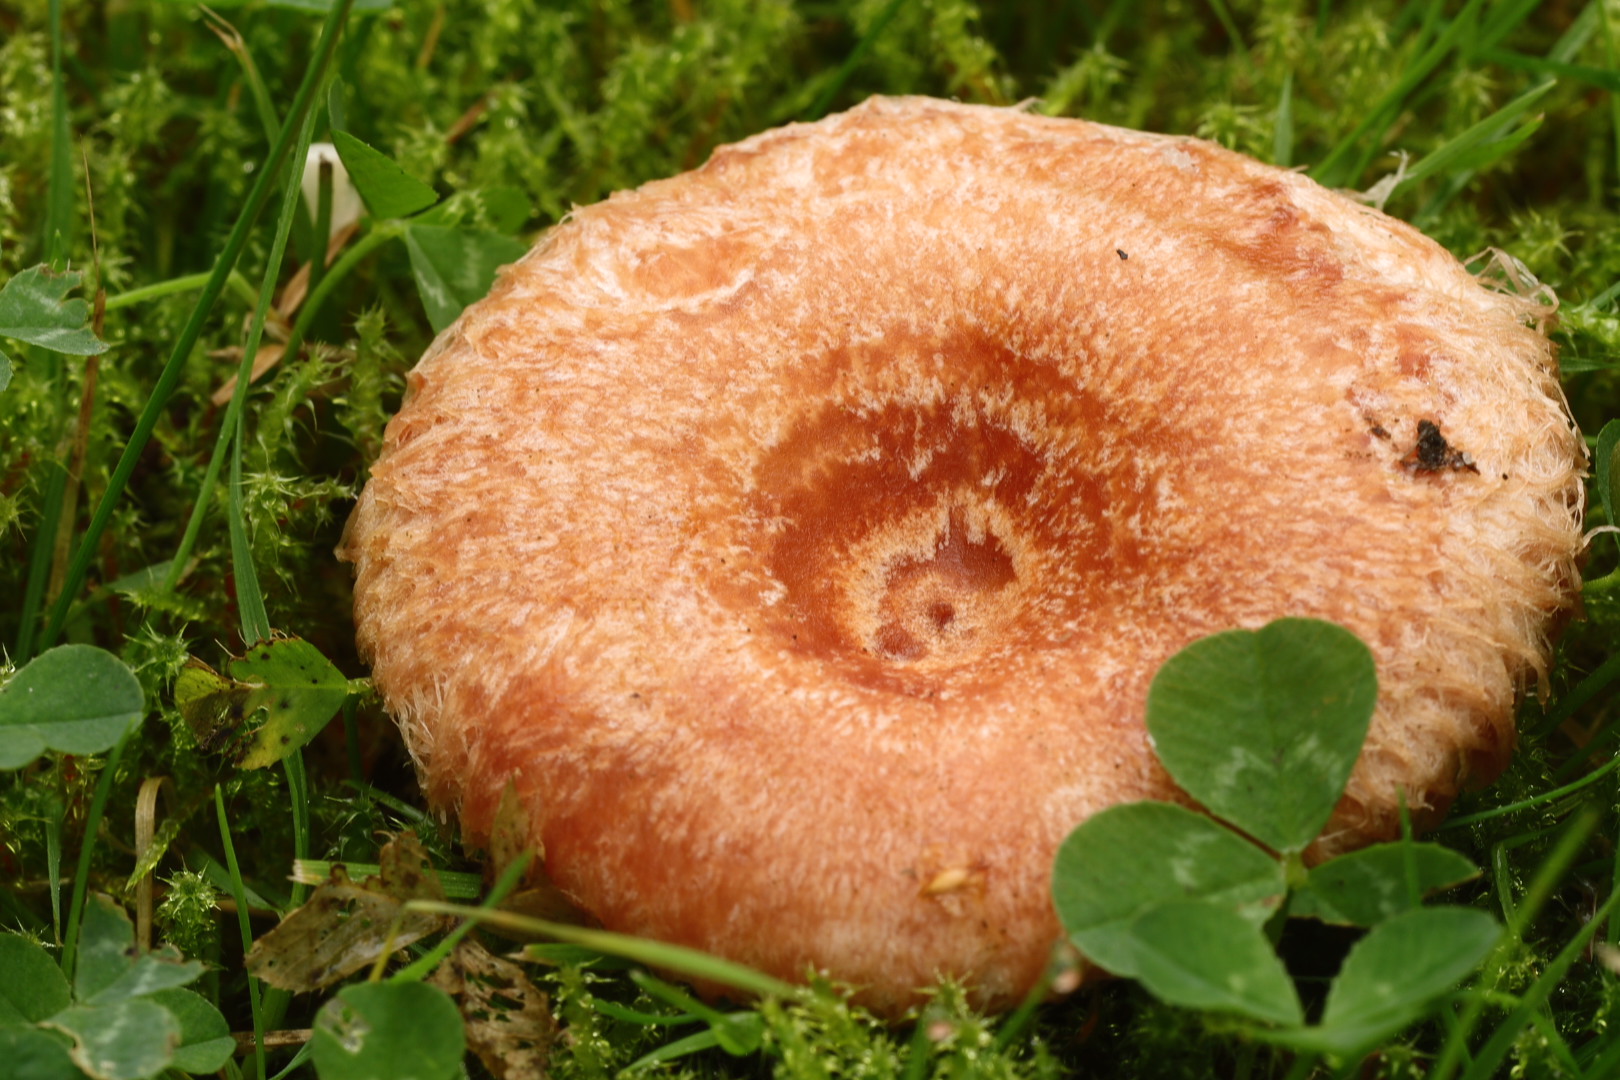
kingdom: Fungi
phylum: Basidiomycota
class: Agaricomycetes
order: Russulales
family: Russulaceae
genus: Lactarius
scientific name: Lactarius torminosus
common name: skægget mælkehat
